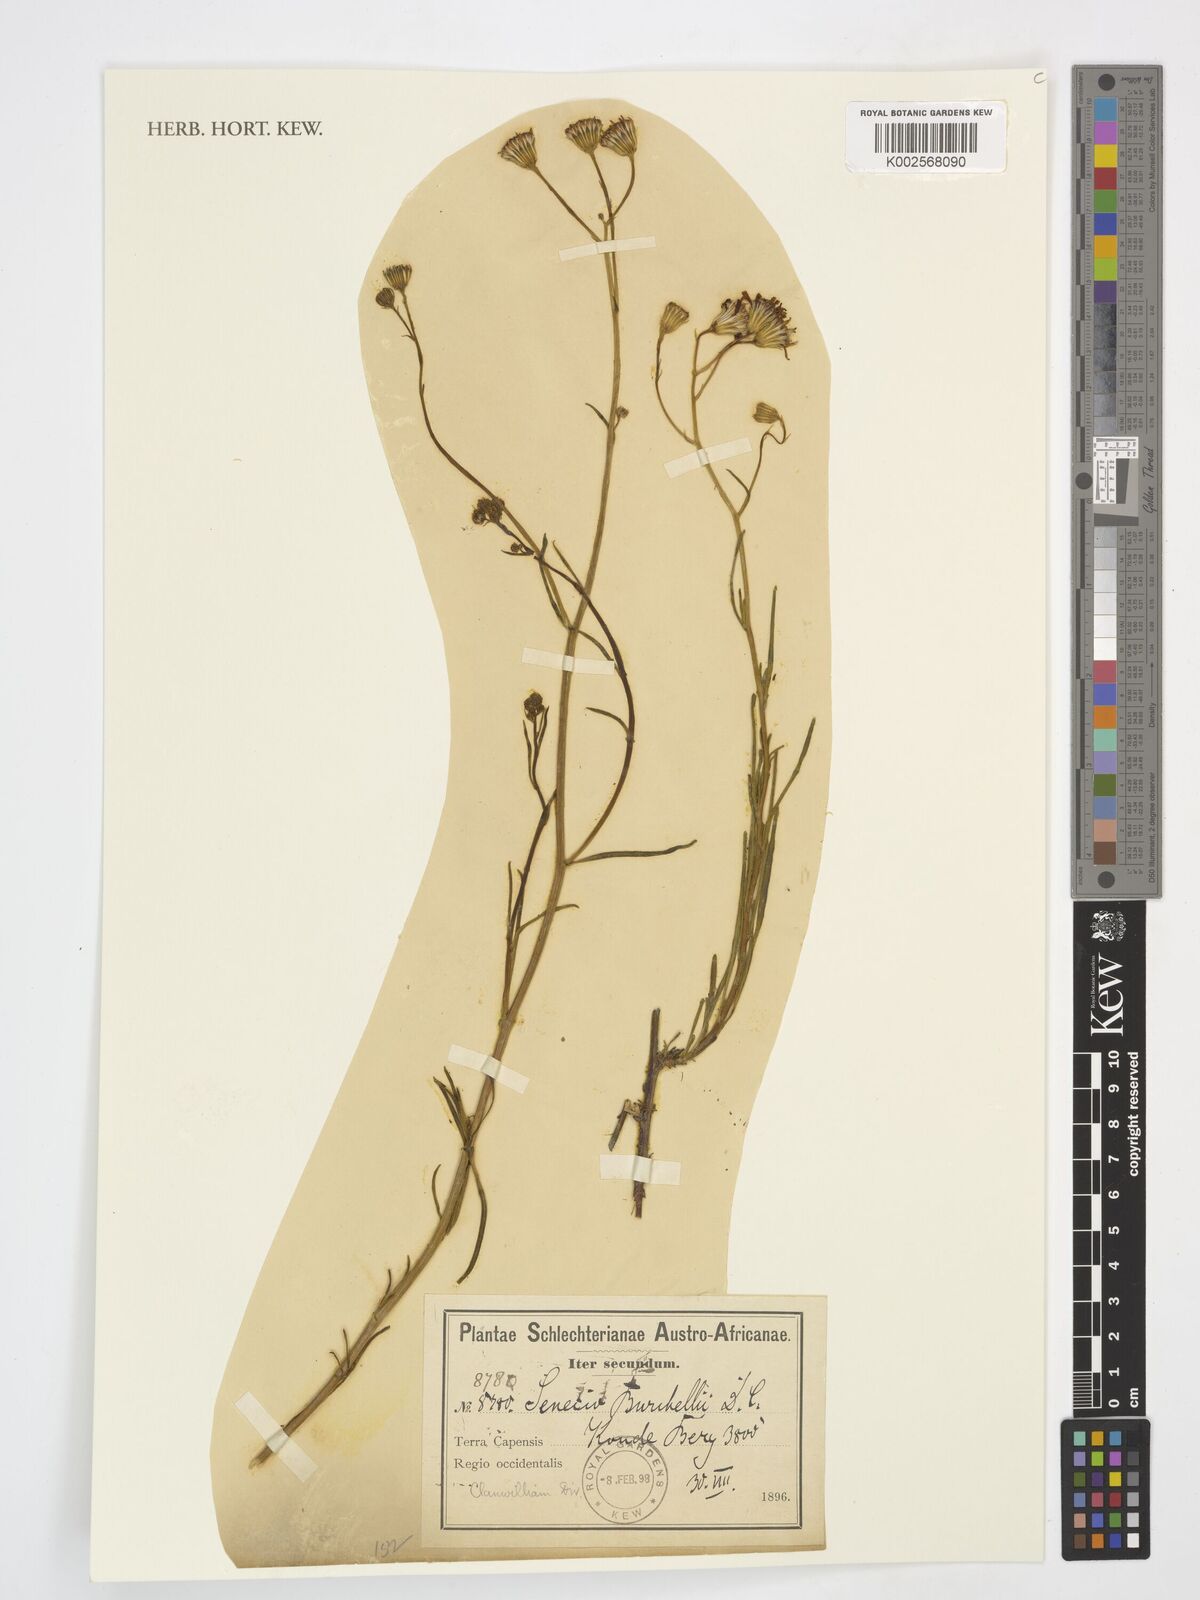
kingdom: Plantae
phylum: Tracheophyta
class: Magnoliopsida
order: Asterales
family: Asteraceae
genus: Senecio
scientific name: Senecio burchellii
